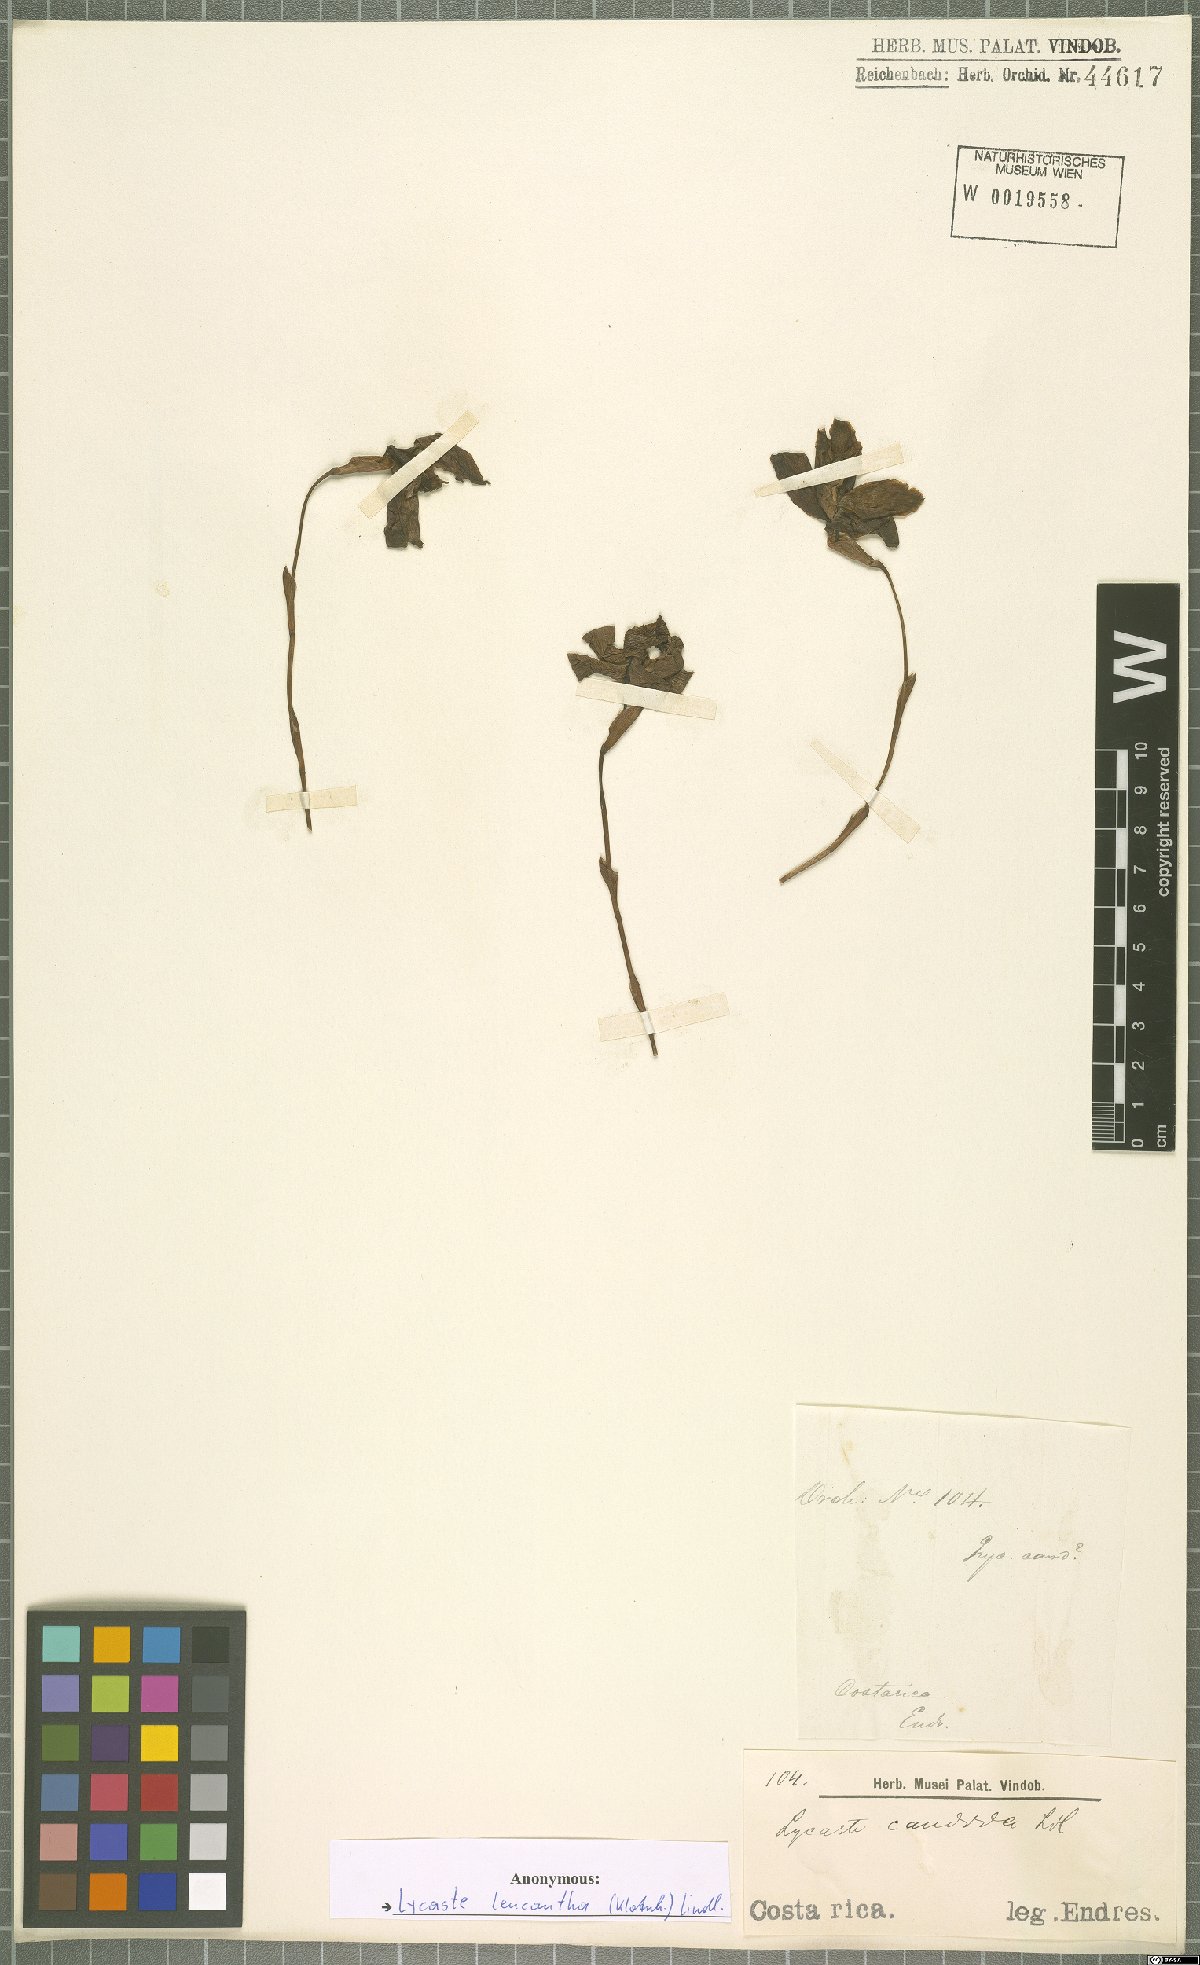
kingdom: Plantae
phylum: Tracheophyta
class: Liliopsida
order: Asparagales
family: Orchidaceae
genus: Lycaste
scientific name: Lycaste leucantha
